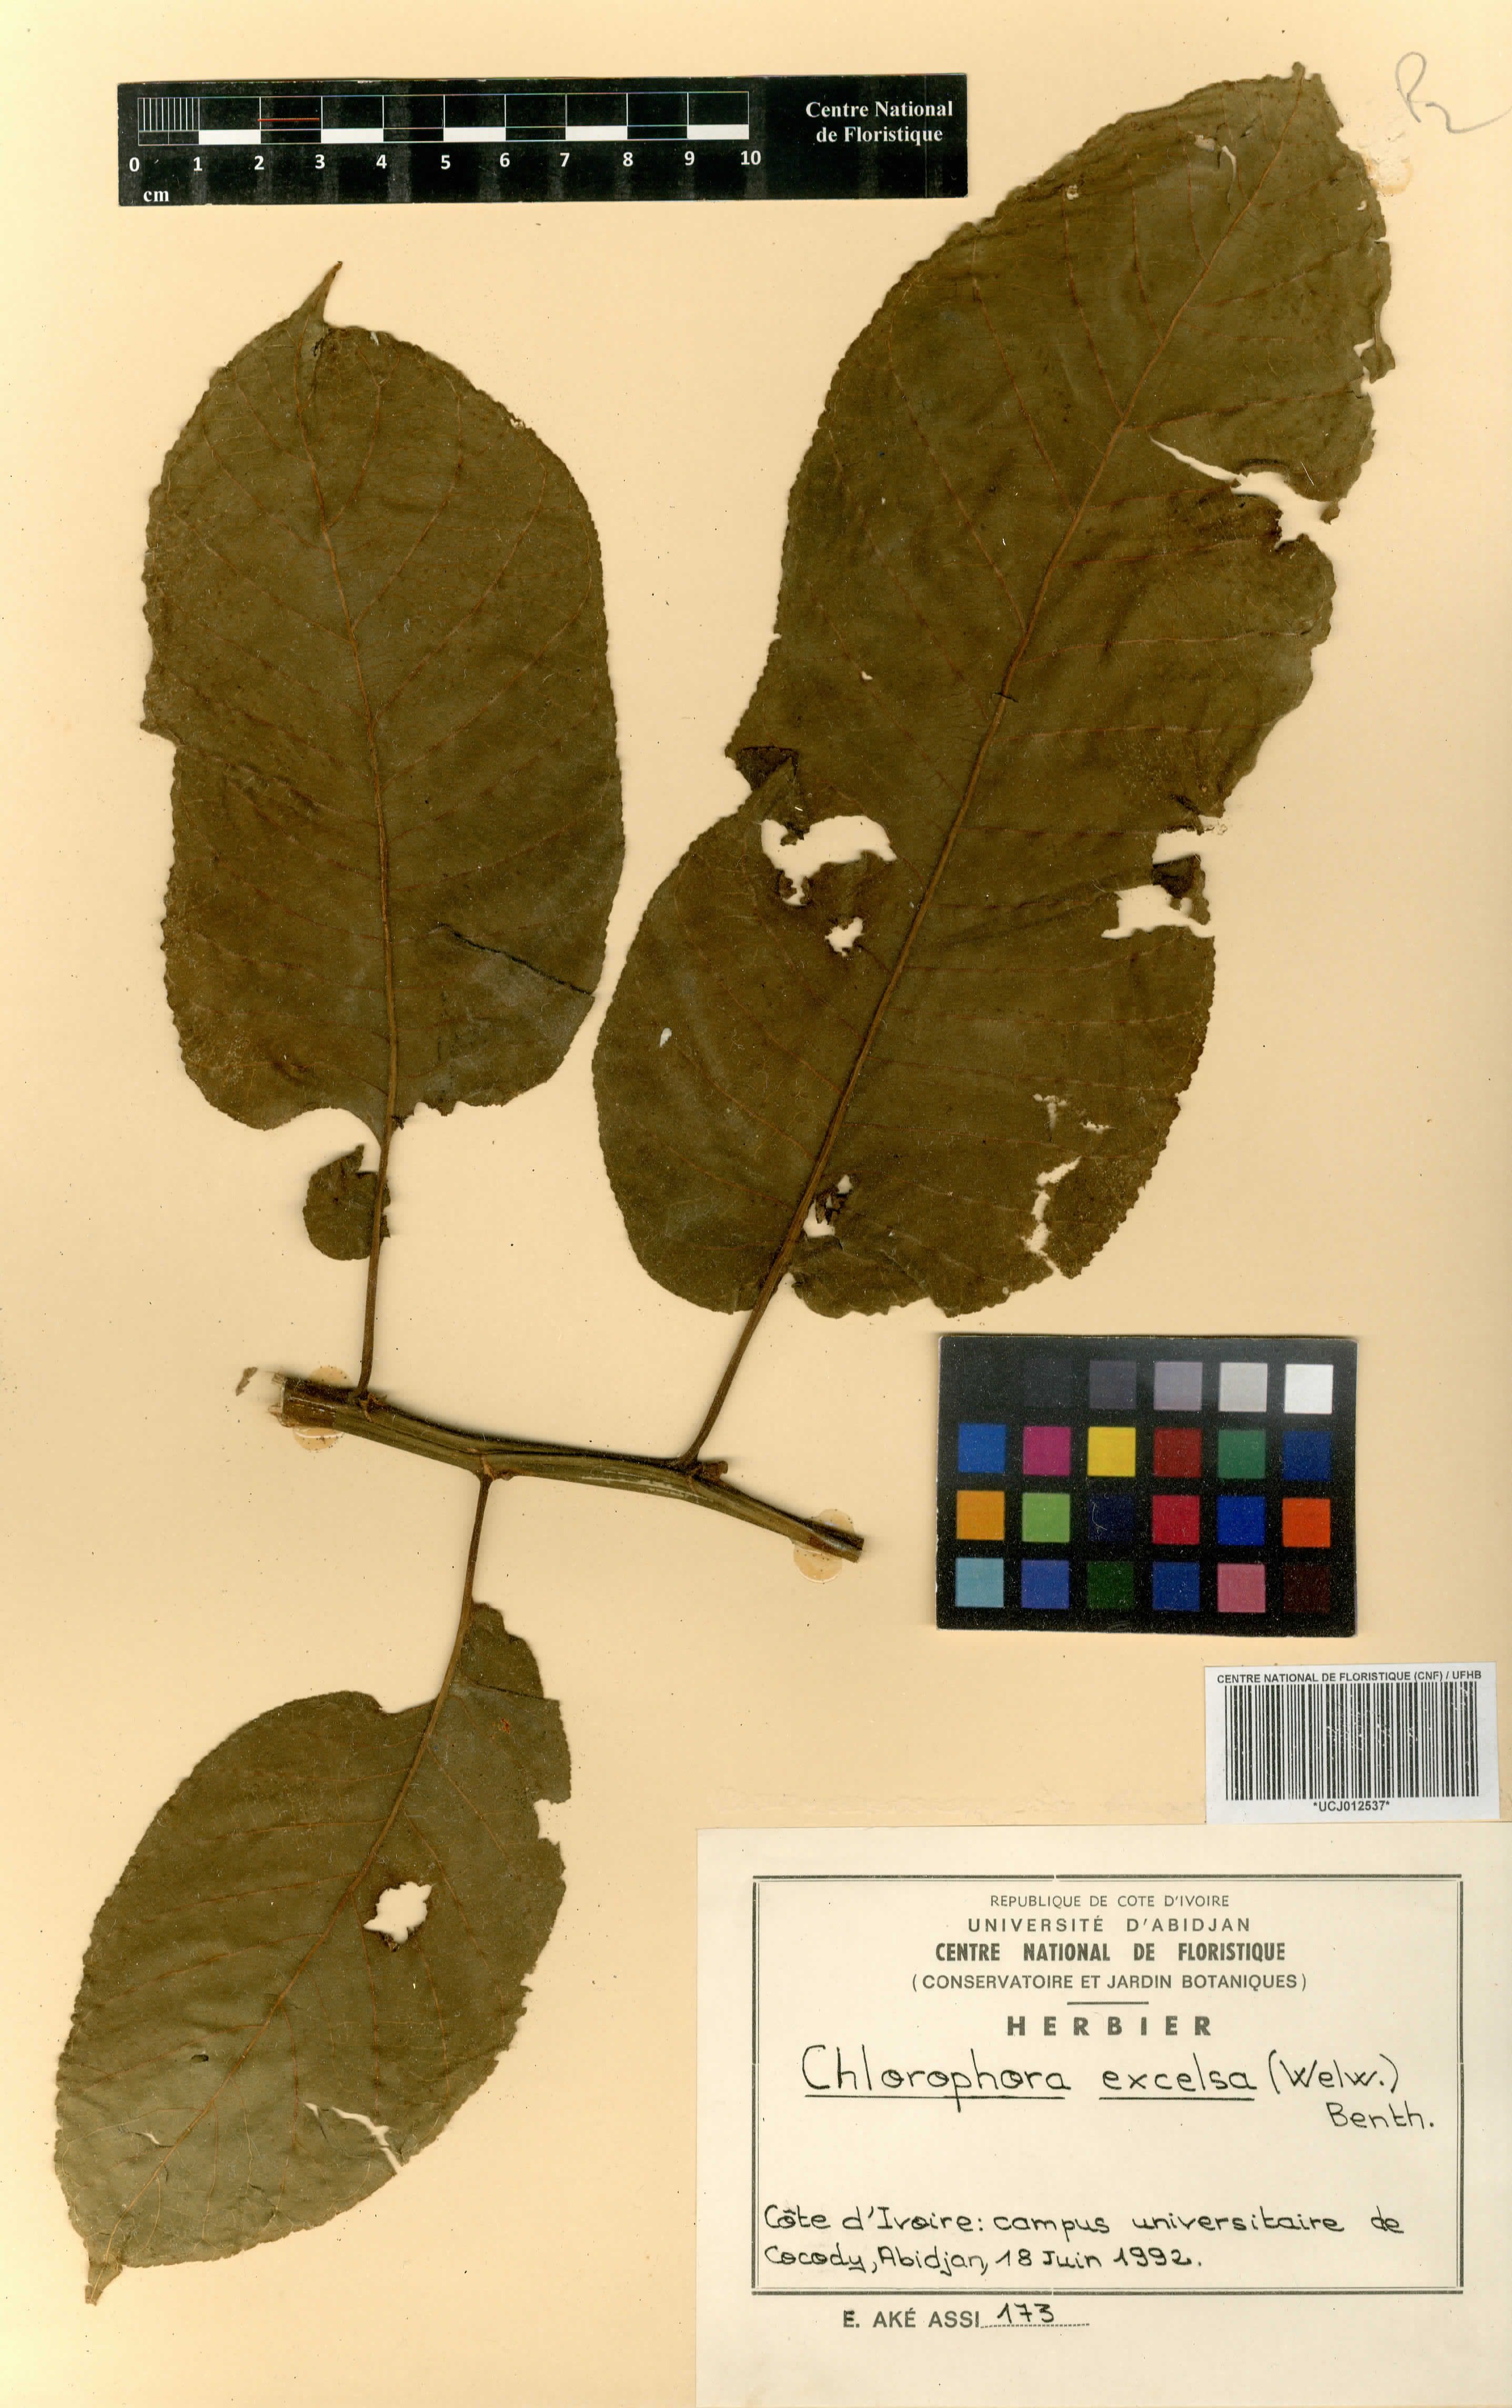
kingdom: Plantae
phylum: Tracheophyta
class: Magnoliopsida
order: Rosales
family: Moraceae
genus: Milicia
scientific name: Milicia excelsa
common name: African teak
